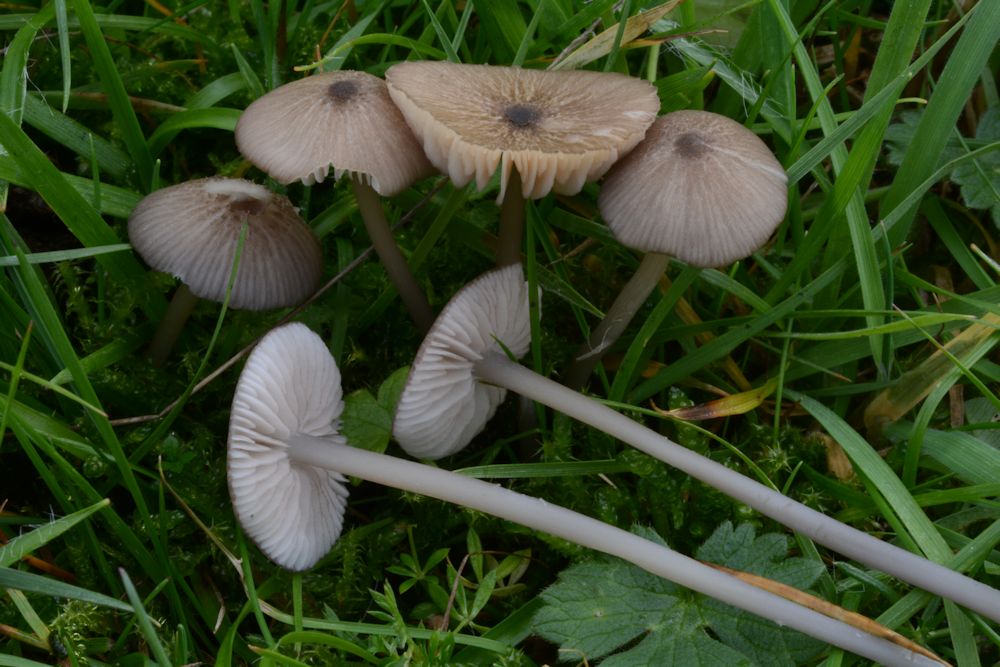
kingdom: Fungi
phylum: Basidiomycota
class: Agaricomycetes
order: Agaricales
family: Entolomataceae
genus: Entoloma
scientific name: Entoloma exile
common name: rødplettet rødblad
